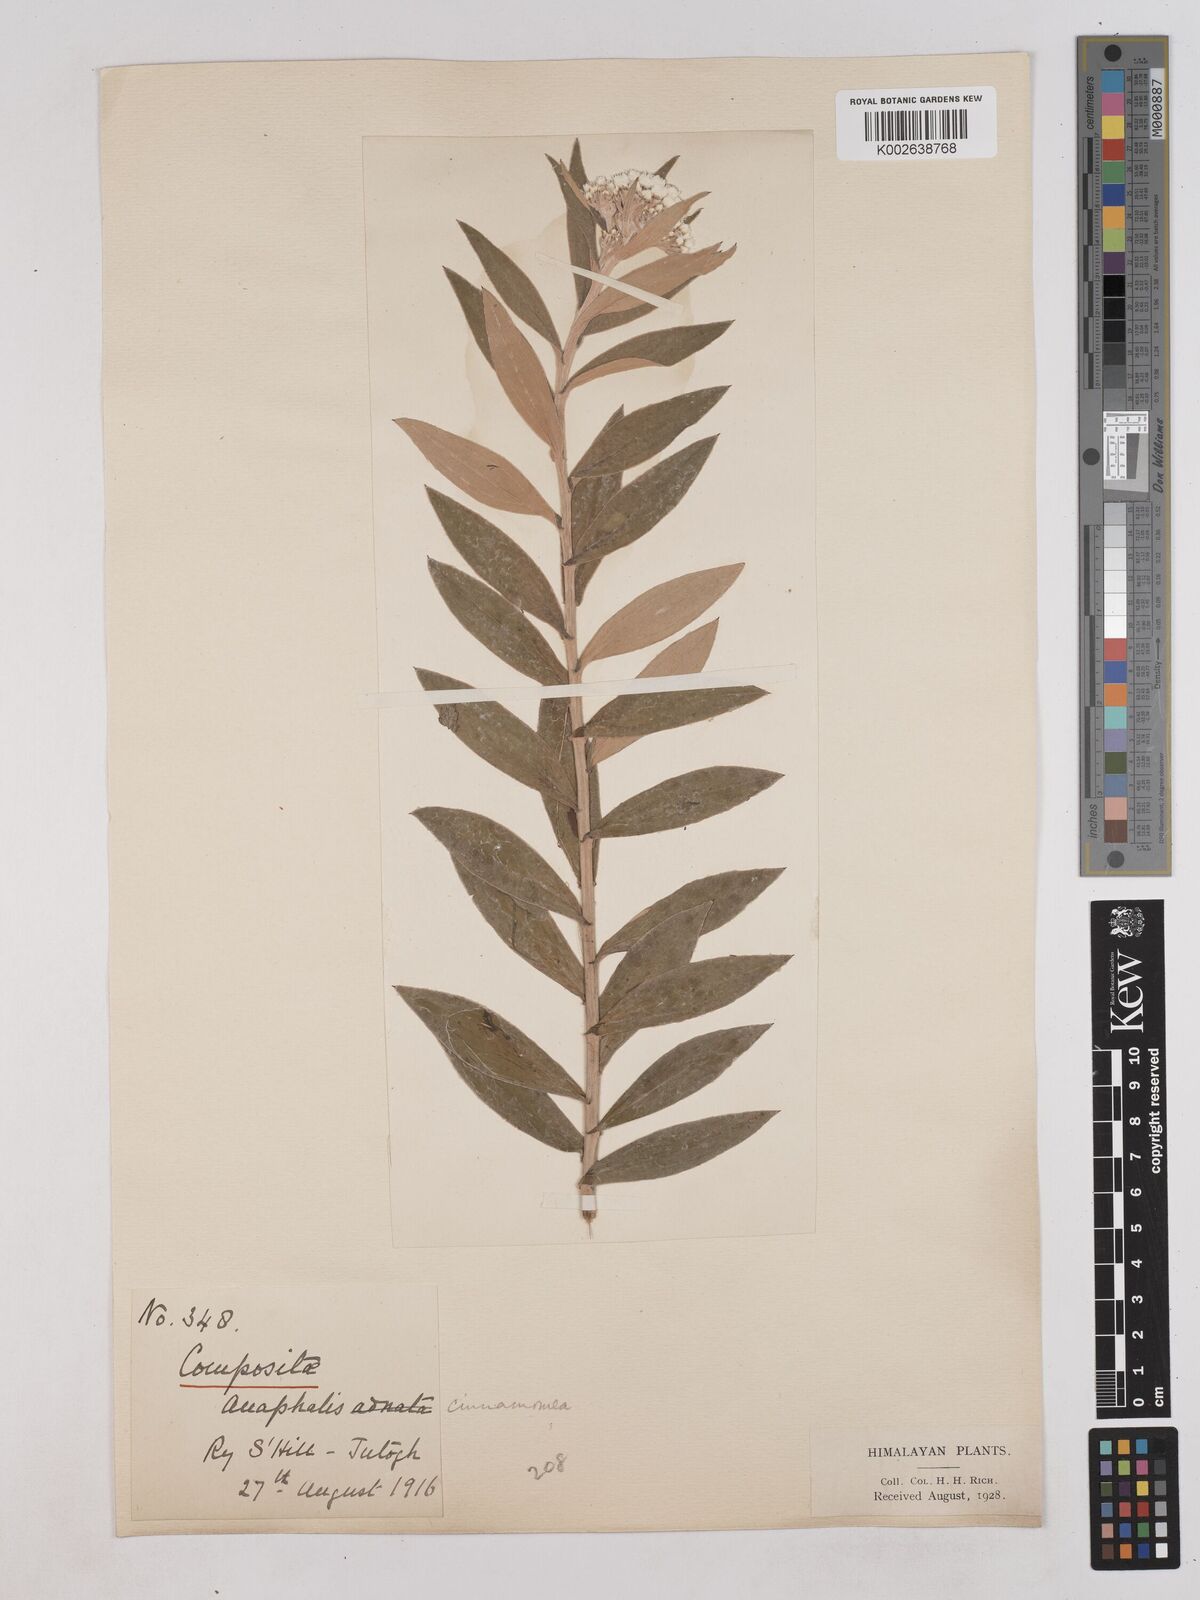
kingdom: Plantae
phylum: Tracheophyta
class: Magnoliopsida
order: Asterales
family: Asteraceae
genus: Anaphalis
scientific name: Anaphalis marcescens
